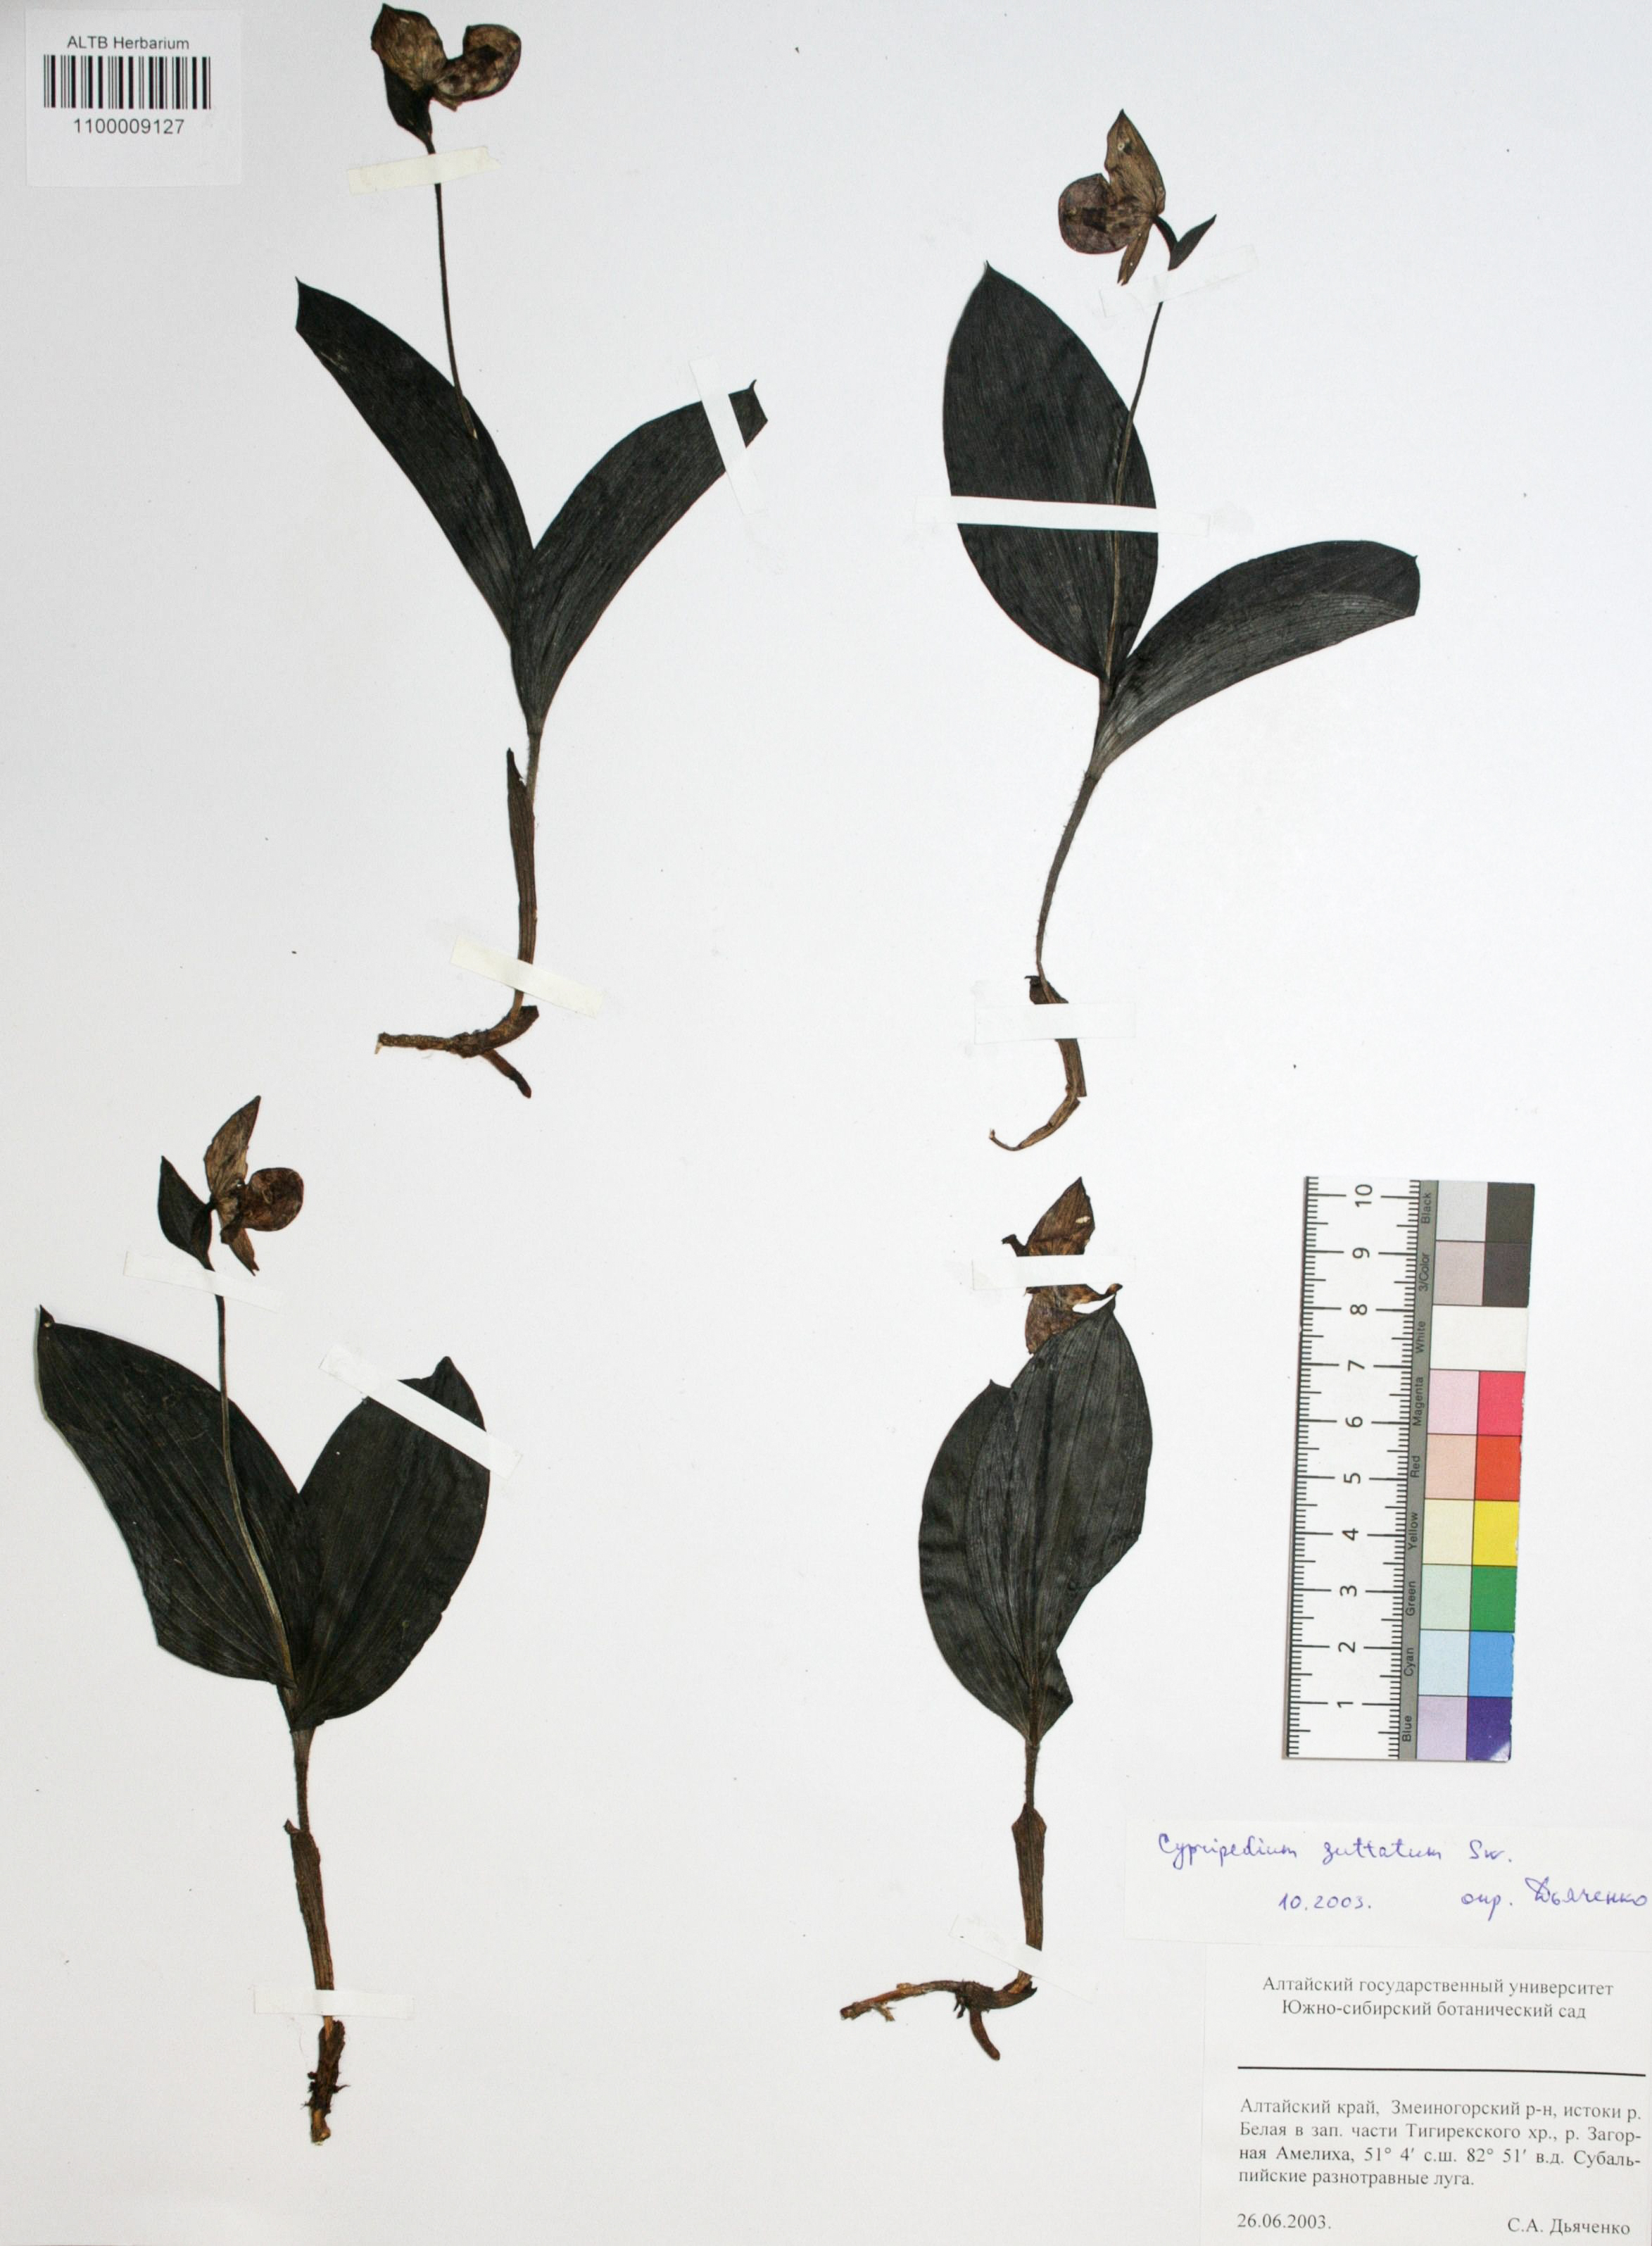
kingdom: Plantae
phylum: Tracheophyta
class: Liliopsida
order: Asparagales
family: Orchidaceae
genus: Cypripedium
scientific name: Cypripedium guttatum
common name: Pink lady slipper
